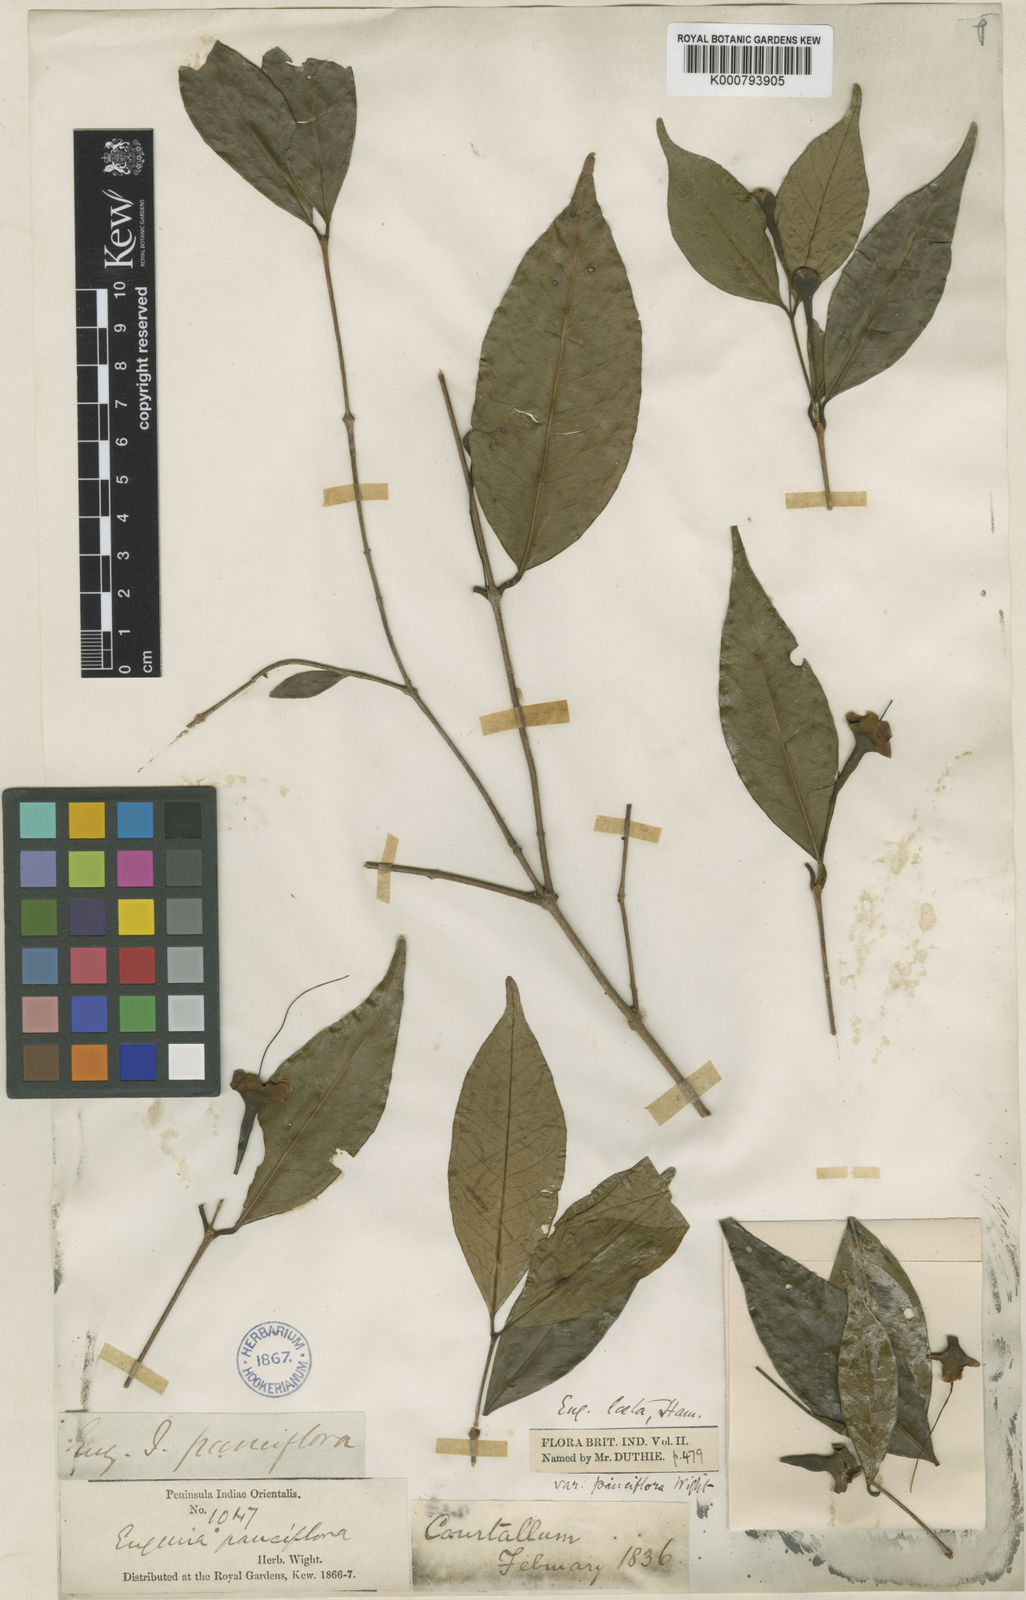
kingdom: Plantae
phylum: Tracheophyta
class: Magnoliopsida
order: Myrtales
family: Myrtaceae
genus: Syzygium
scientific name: Syzygium
